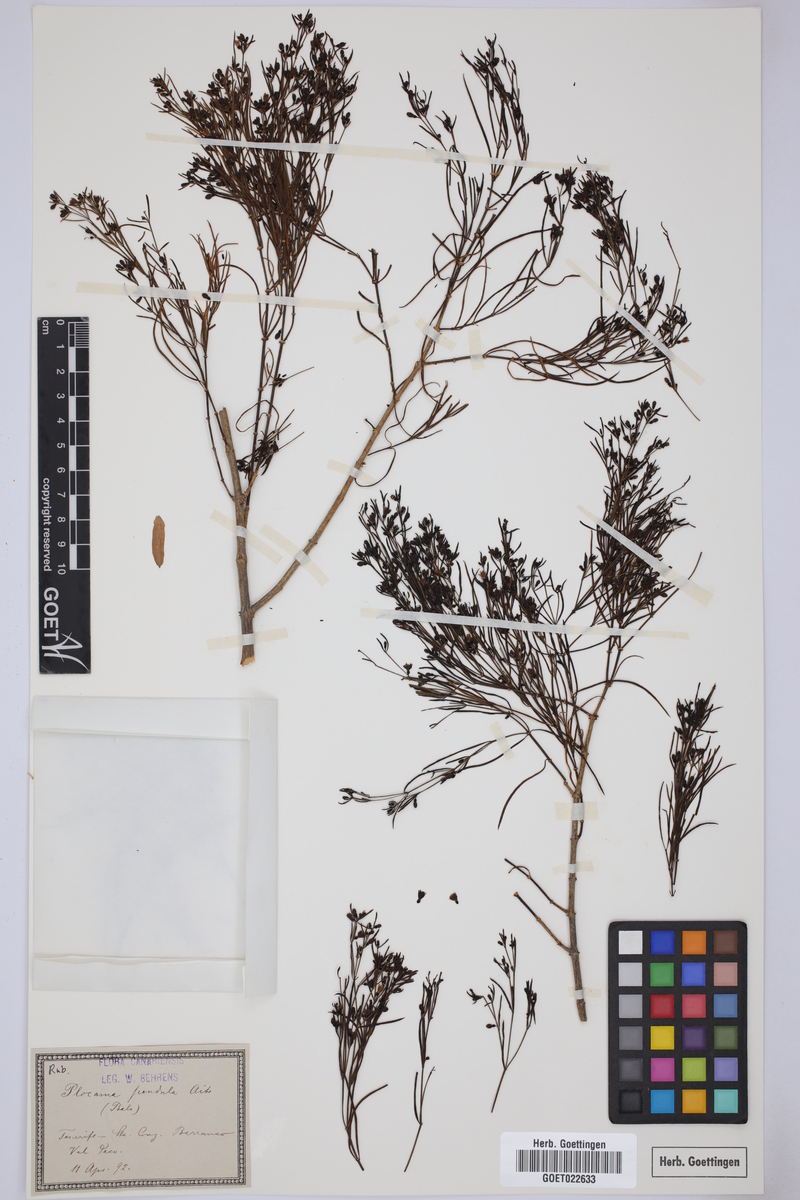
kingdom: Plantae
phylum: Tracheophyta
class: Magnoliopsida
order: Gentianales
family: Rubiaceae
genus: Plocama
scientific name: Plocama pendula
